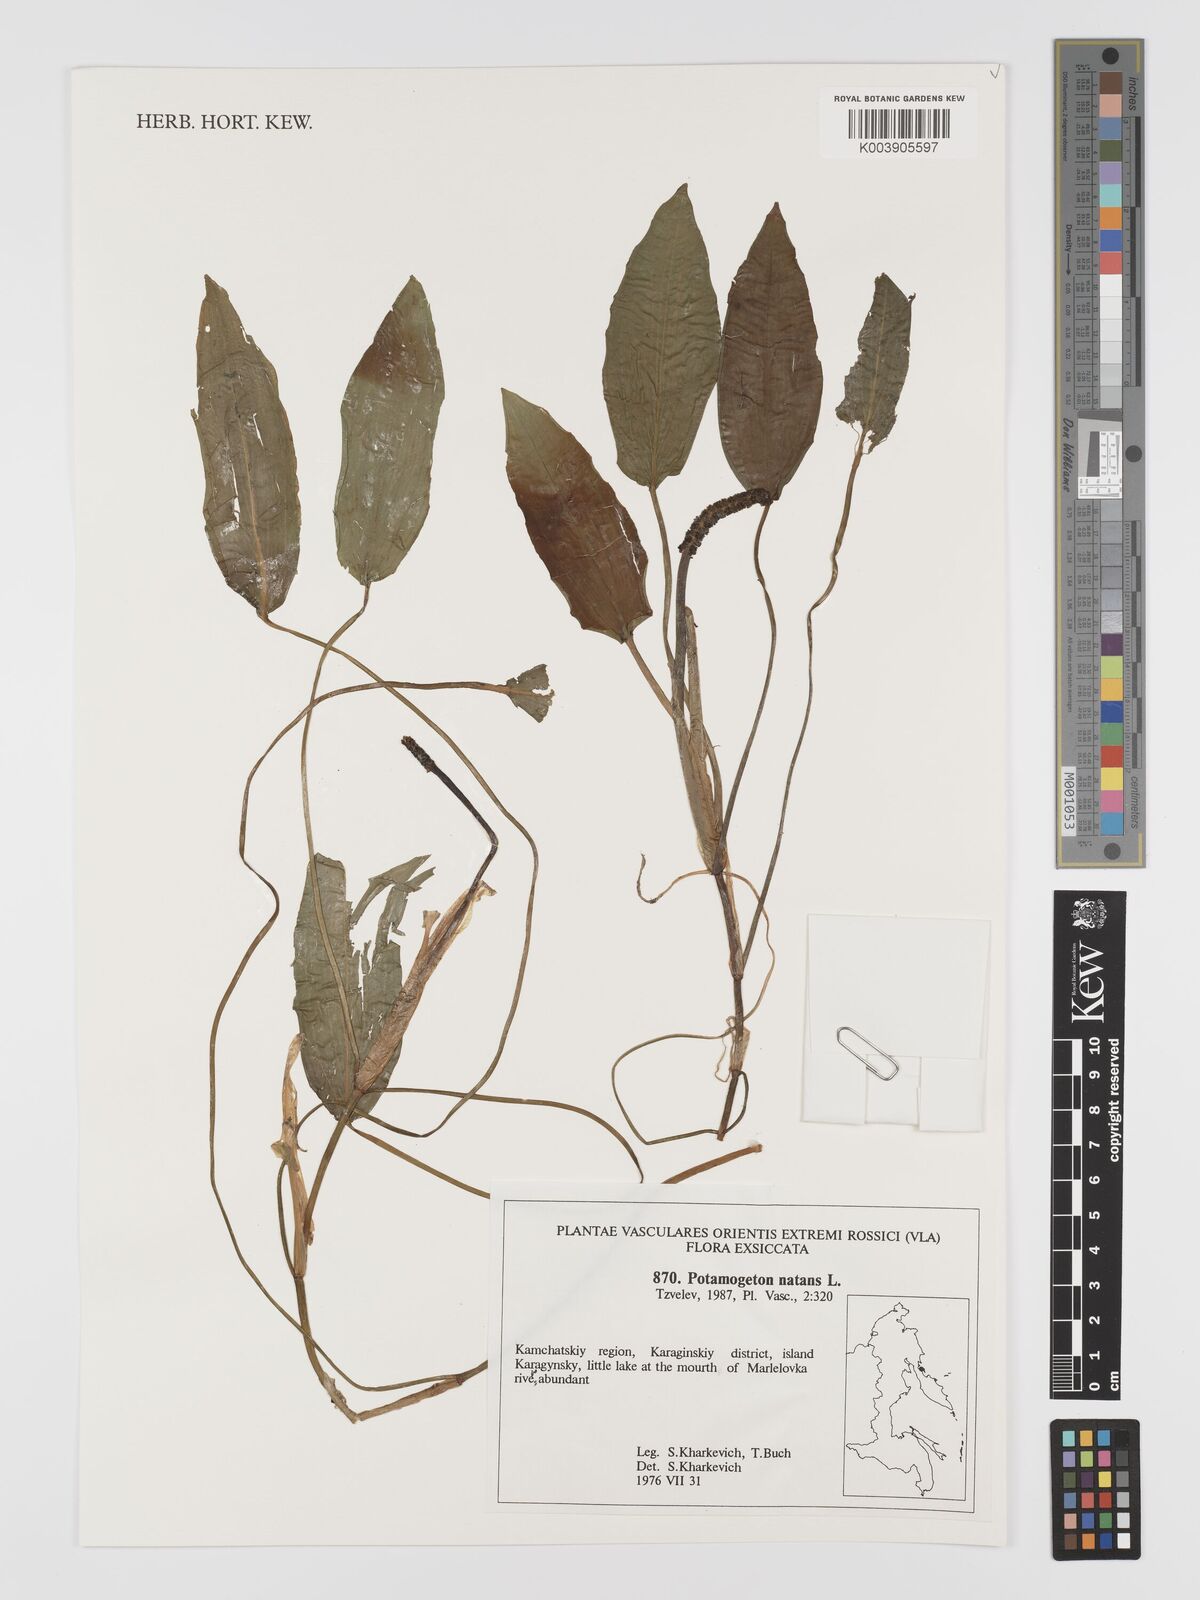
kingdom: Plantae
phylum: Tracheophyta
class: Liliopsida
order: Alismatales
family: Potamogetonaceae
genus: Potamogeton
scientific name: Potamogeton natans
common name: Broad-leaved pondweed
